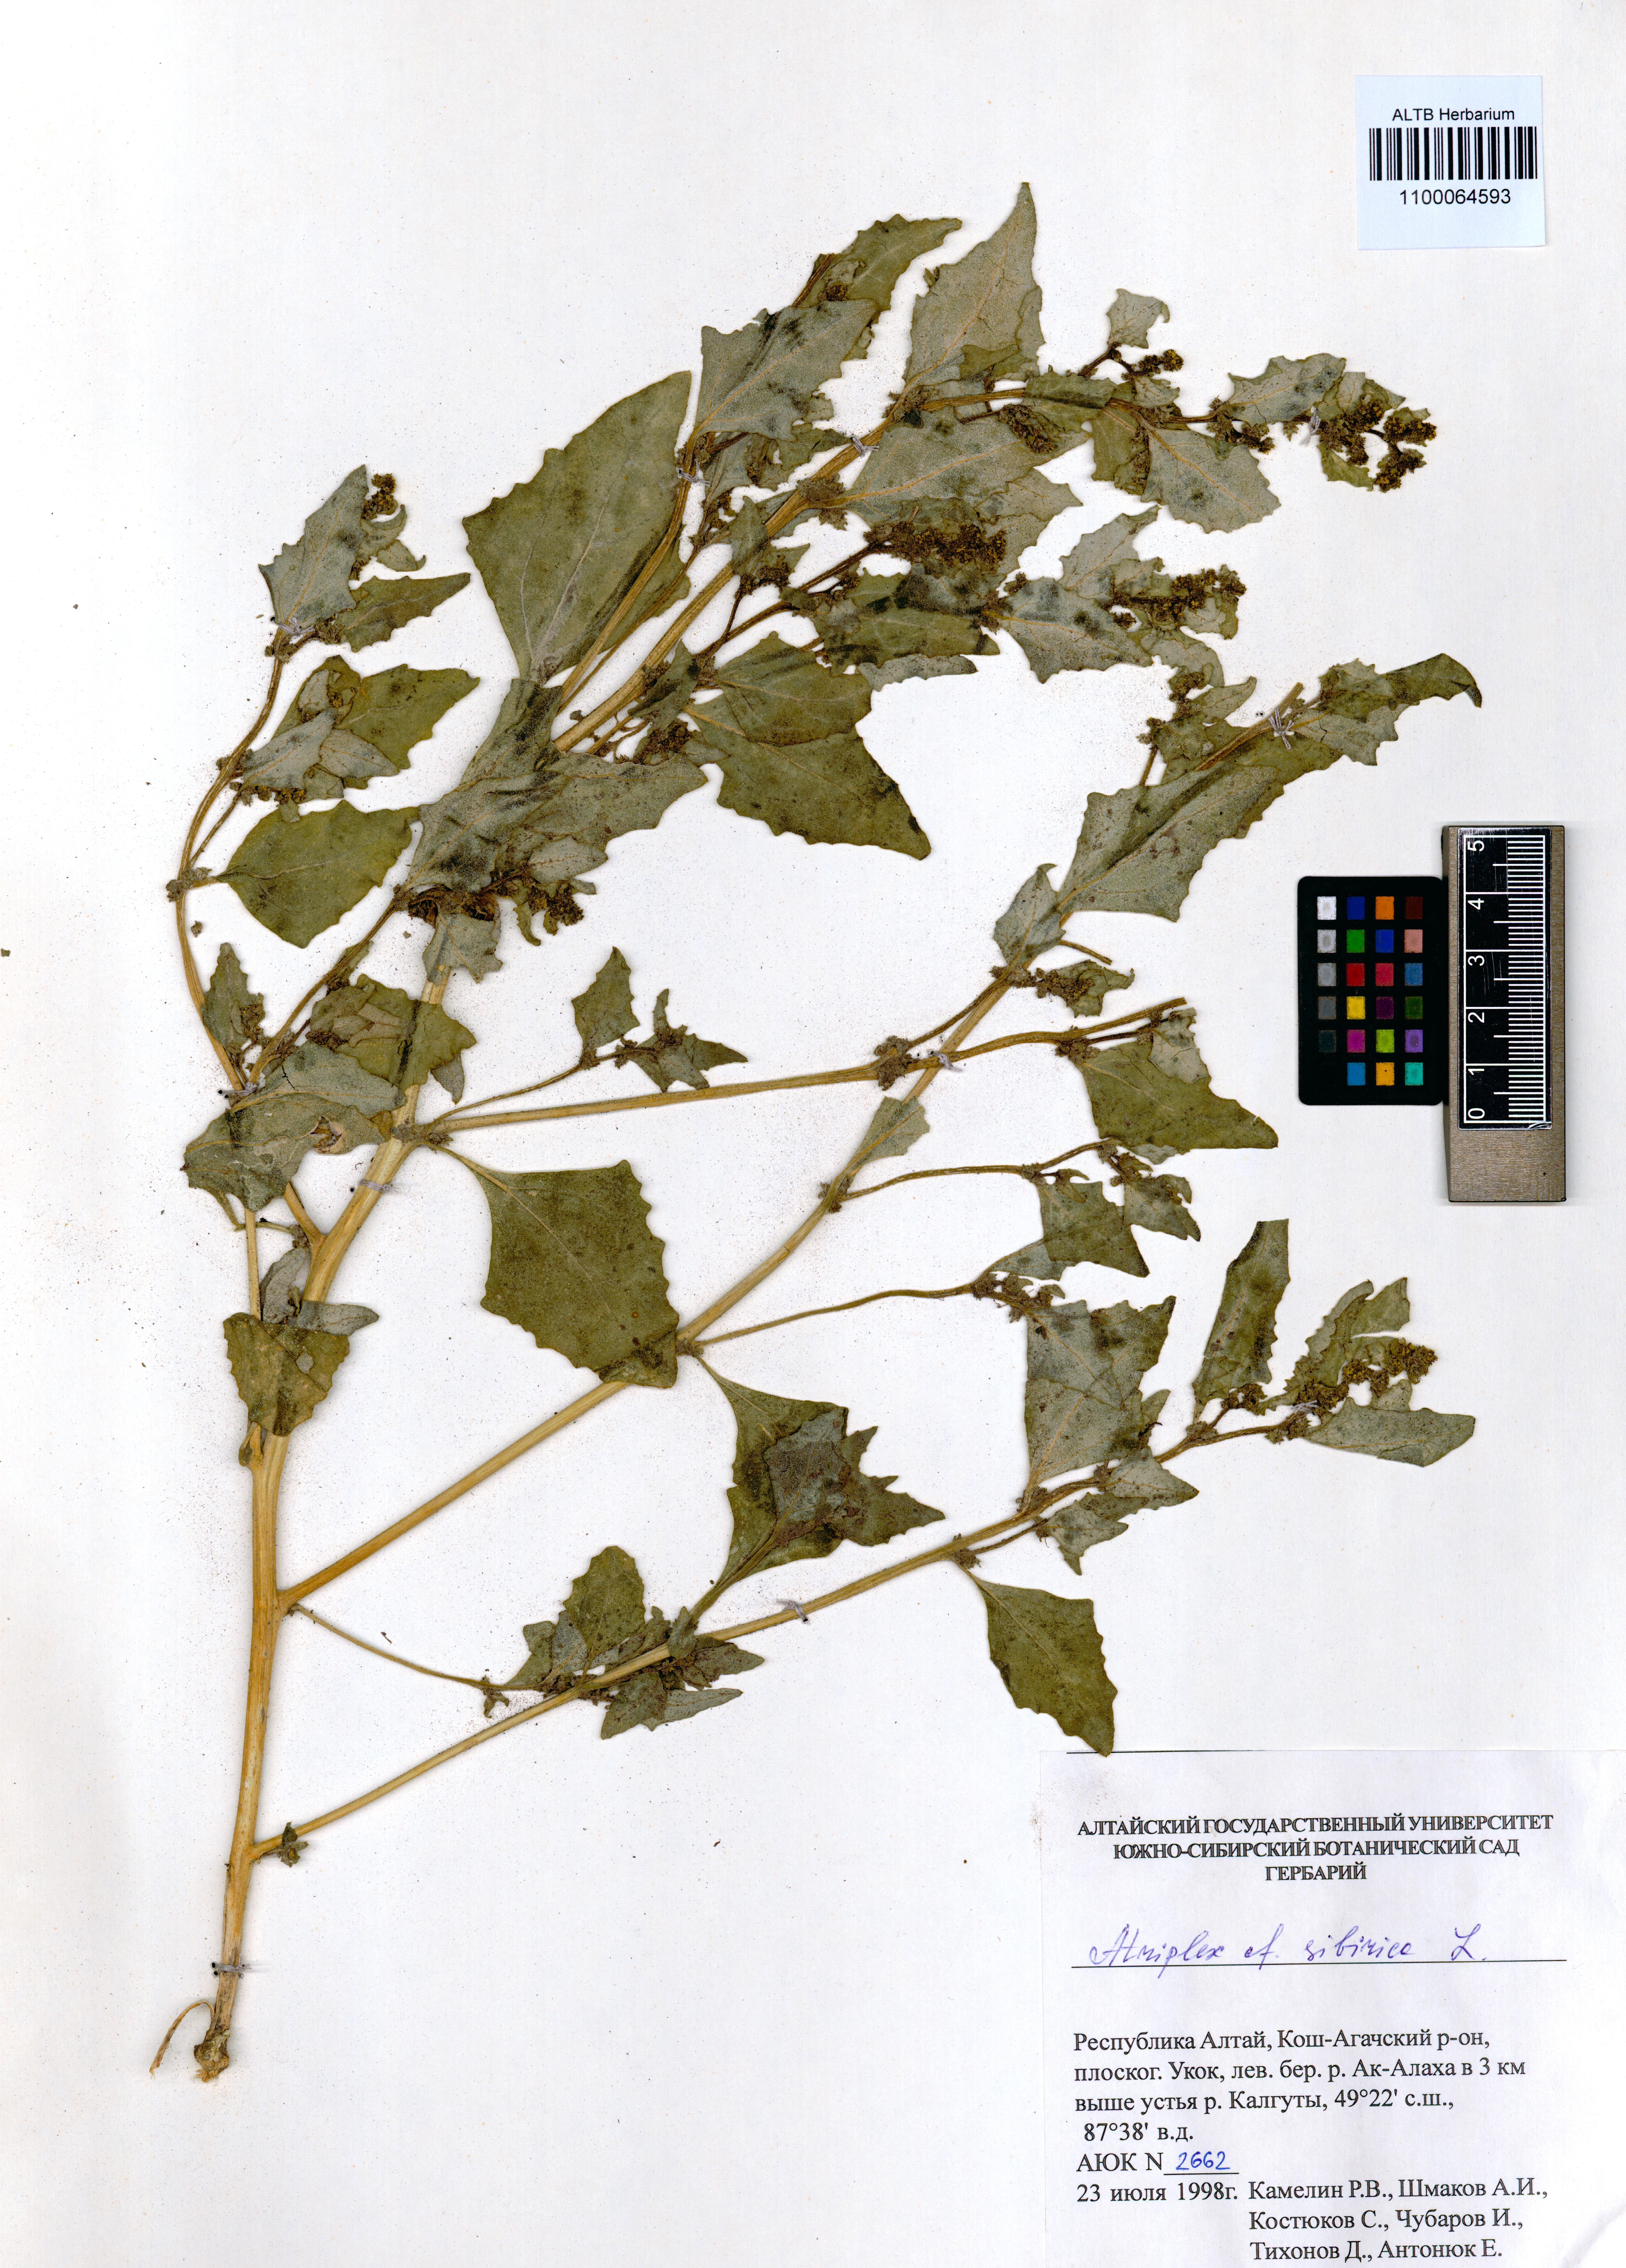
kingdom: Plantae
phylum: Tracheophyta
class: Magnoliopsida
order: Caryophyllales
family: Amaranthaceae
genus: Atriplex
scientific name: Atriplex sibirica
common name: Siberian saltbush
